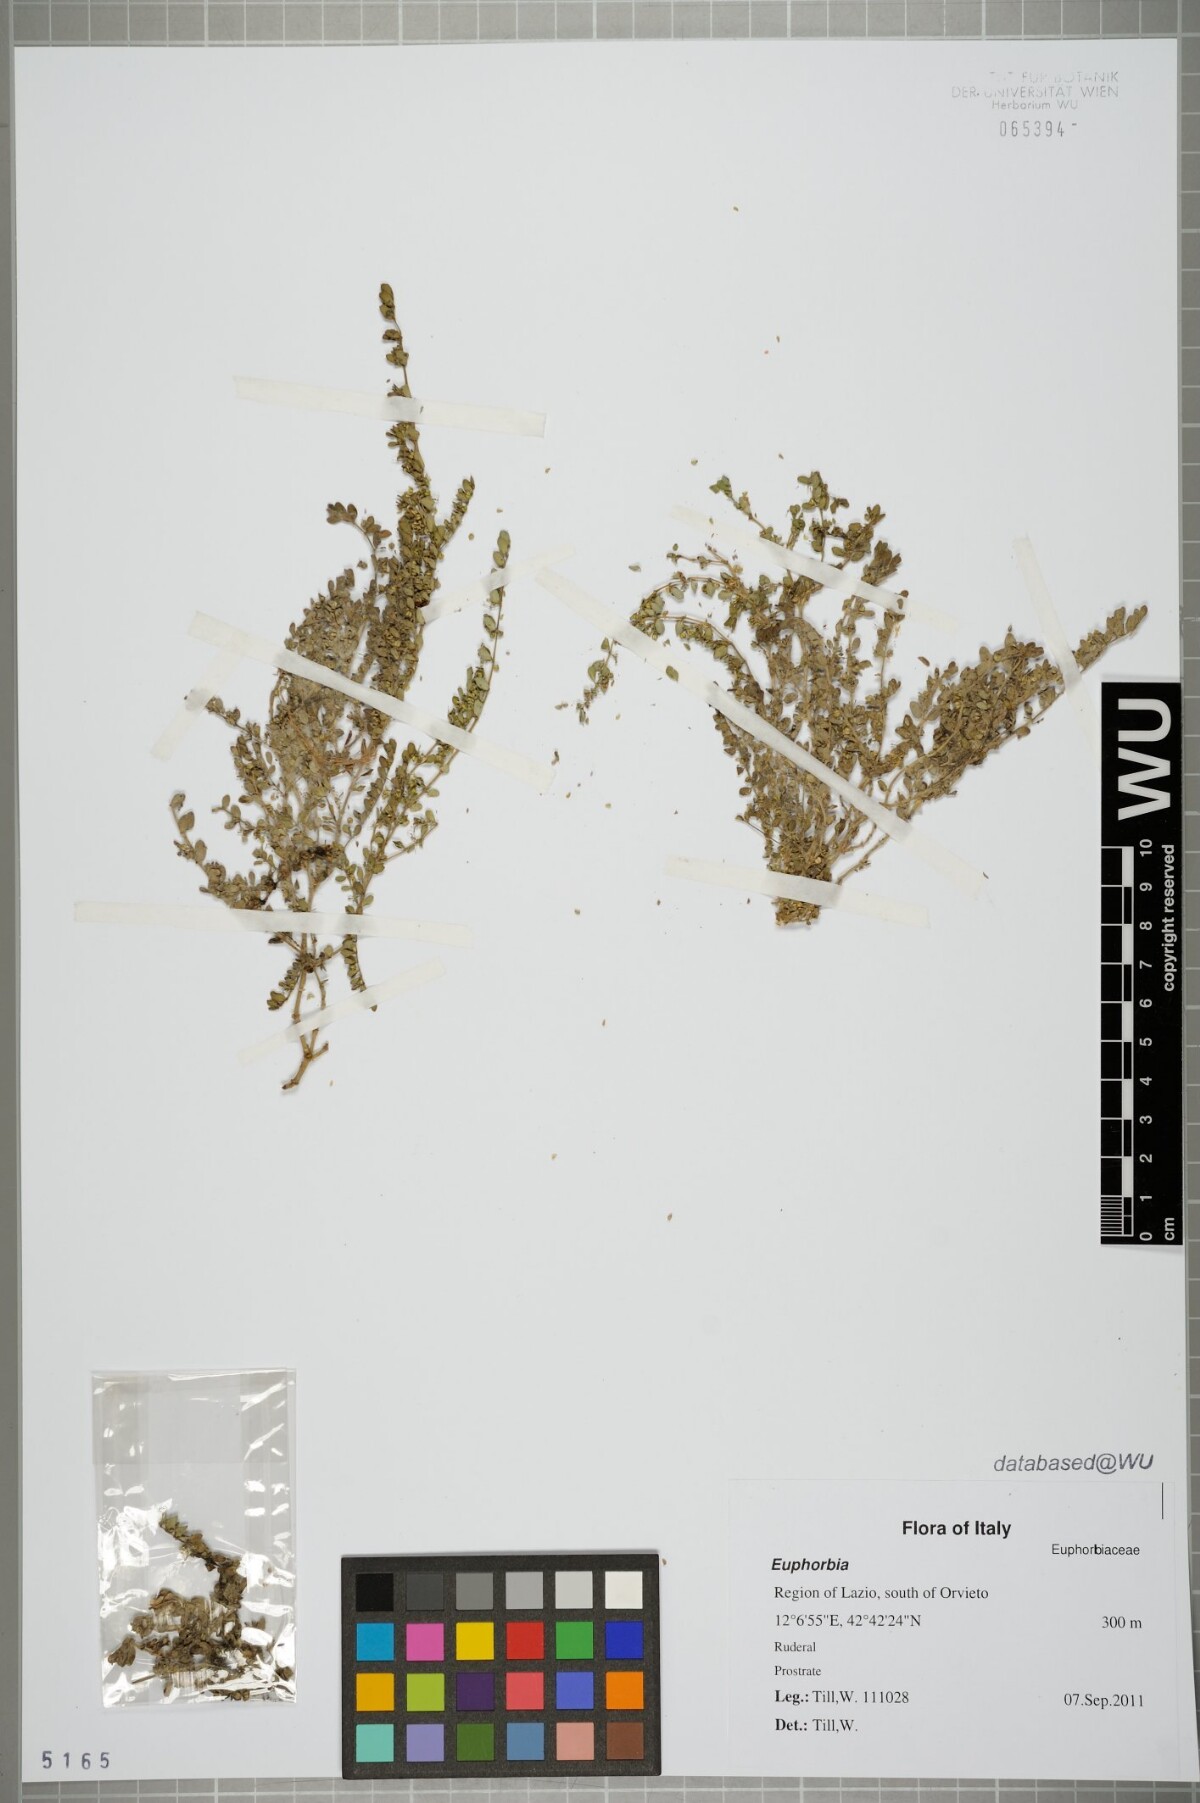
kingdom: Plantae
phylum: Tracheophyta
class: Magnoliopsida
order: Malpighiales
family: Euphorbiaceae
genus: Euphorbia
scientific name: Euphorbia
